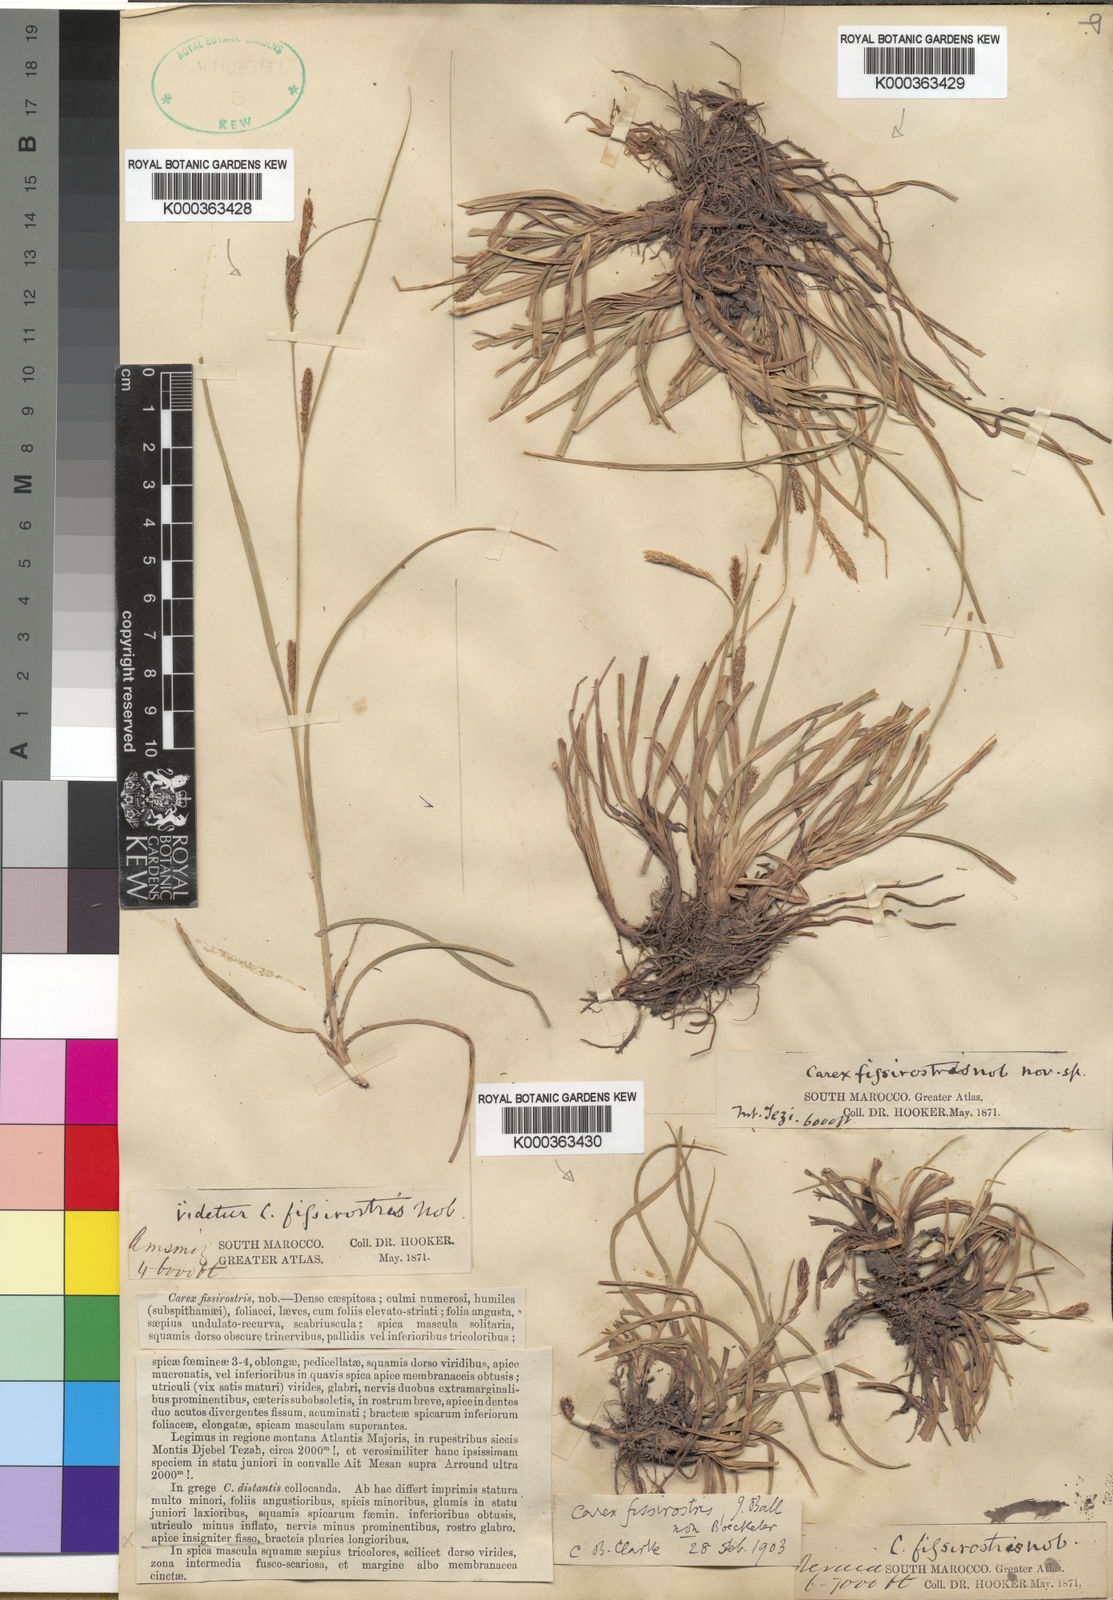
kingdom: Plantae
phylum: Tracheophyta
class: Liliopsida
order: Poales
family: Cyperaceae
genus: Carex
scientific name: Carex diluta
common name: Sedge
